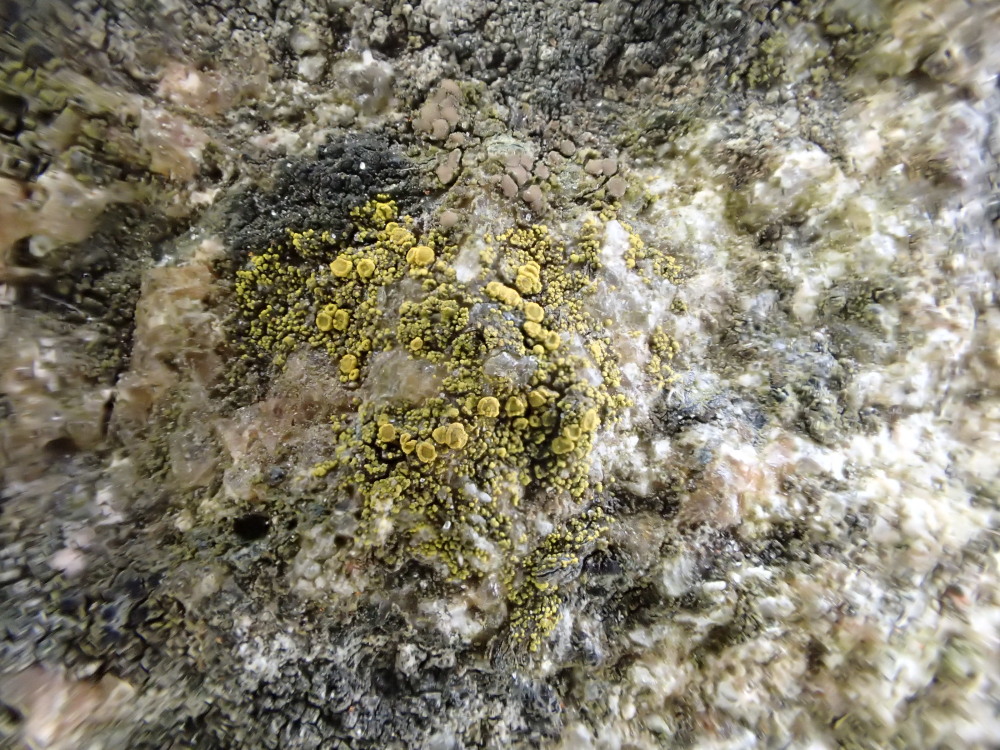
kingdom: Fungi
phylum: Ascomycota
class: Candelariomycetes
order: Candelariales
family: Candelariaceae
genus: Candelariella
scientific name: Candelariella vitellina
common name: almindelig æggeblommelav
